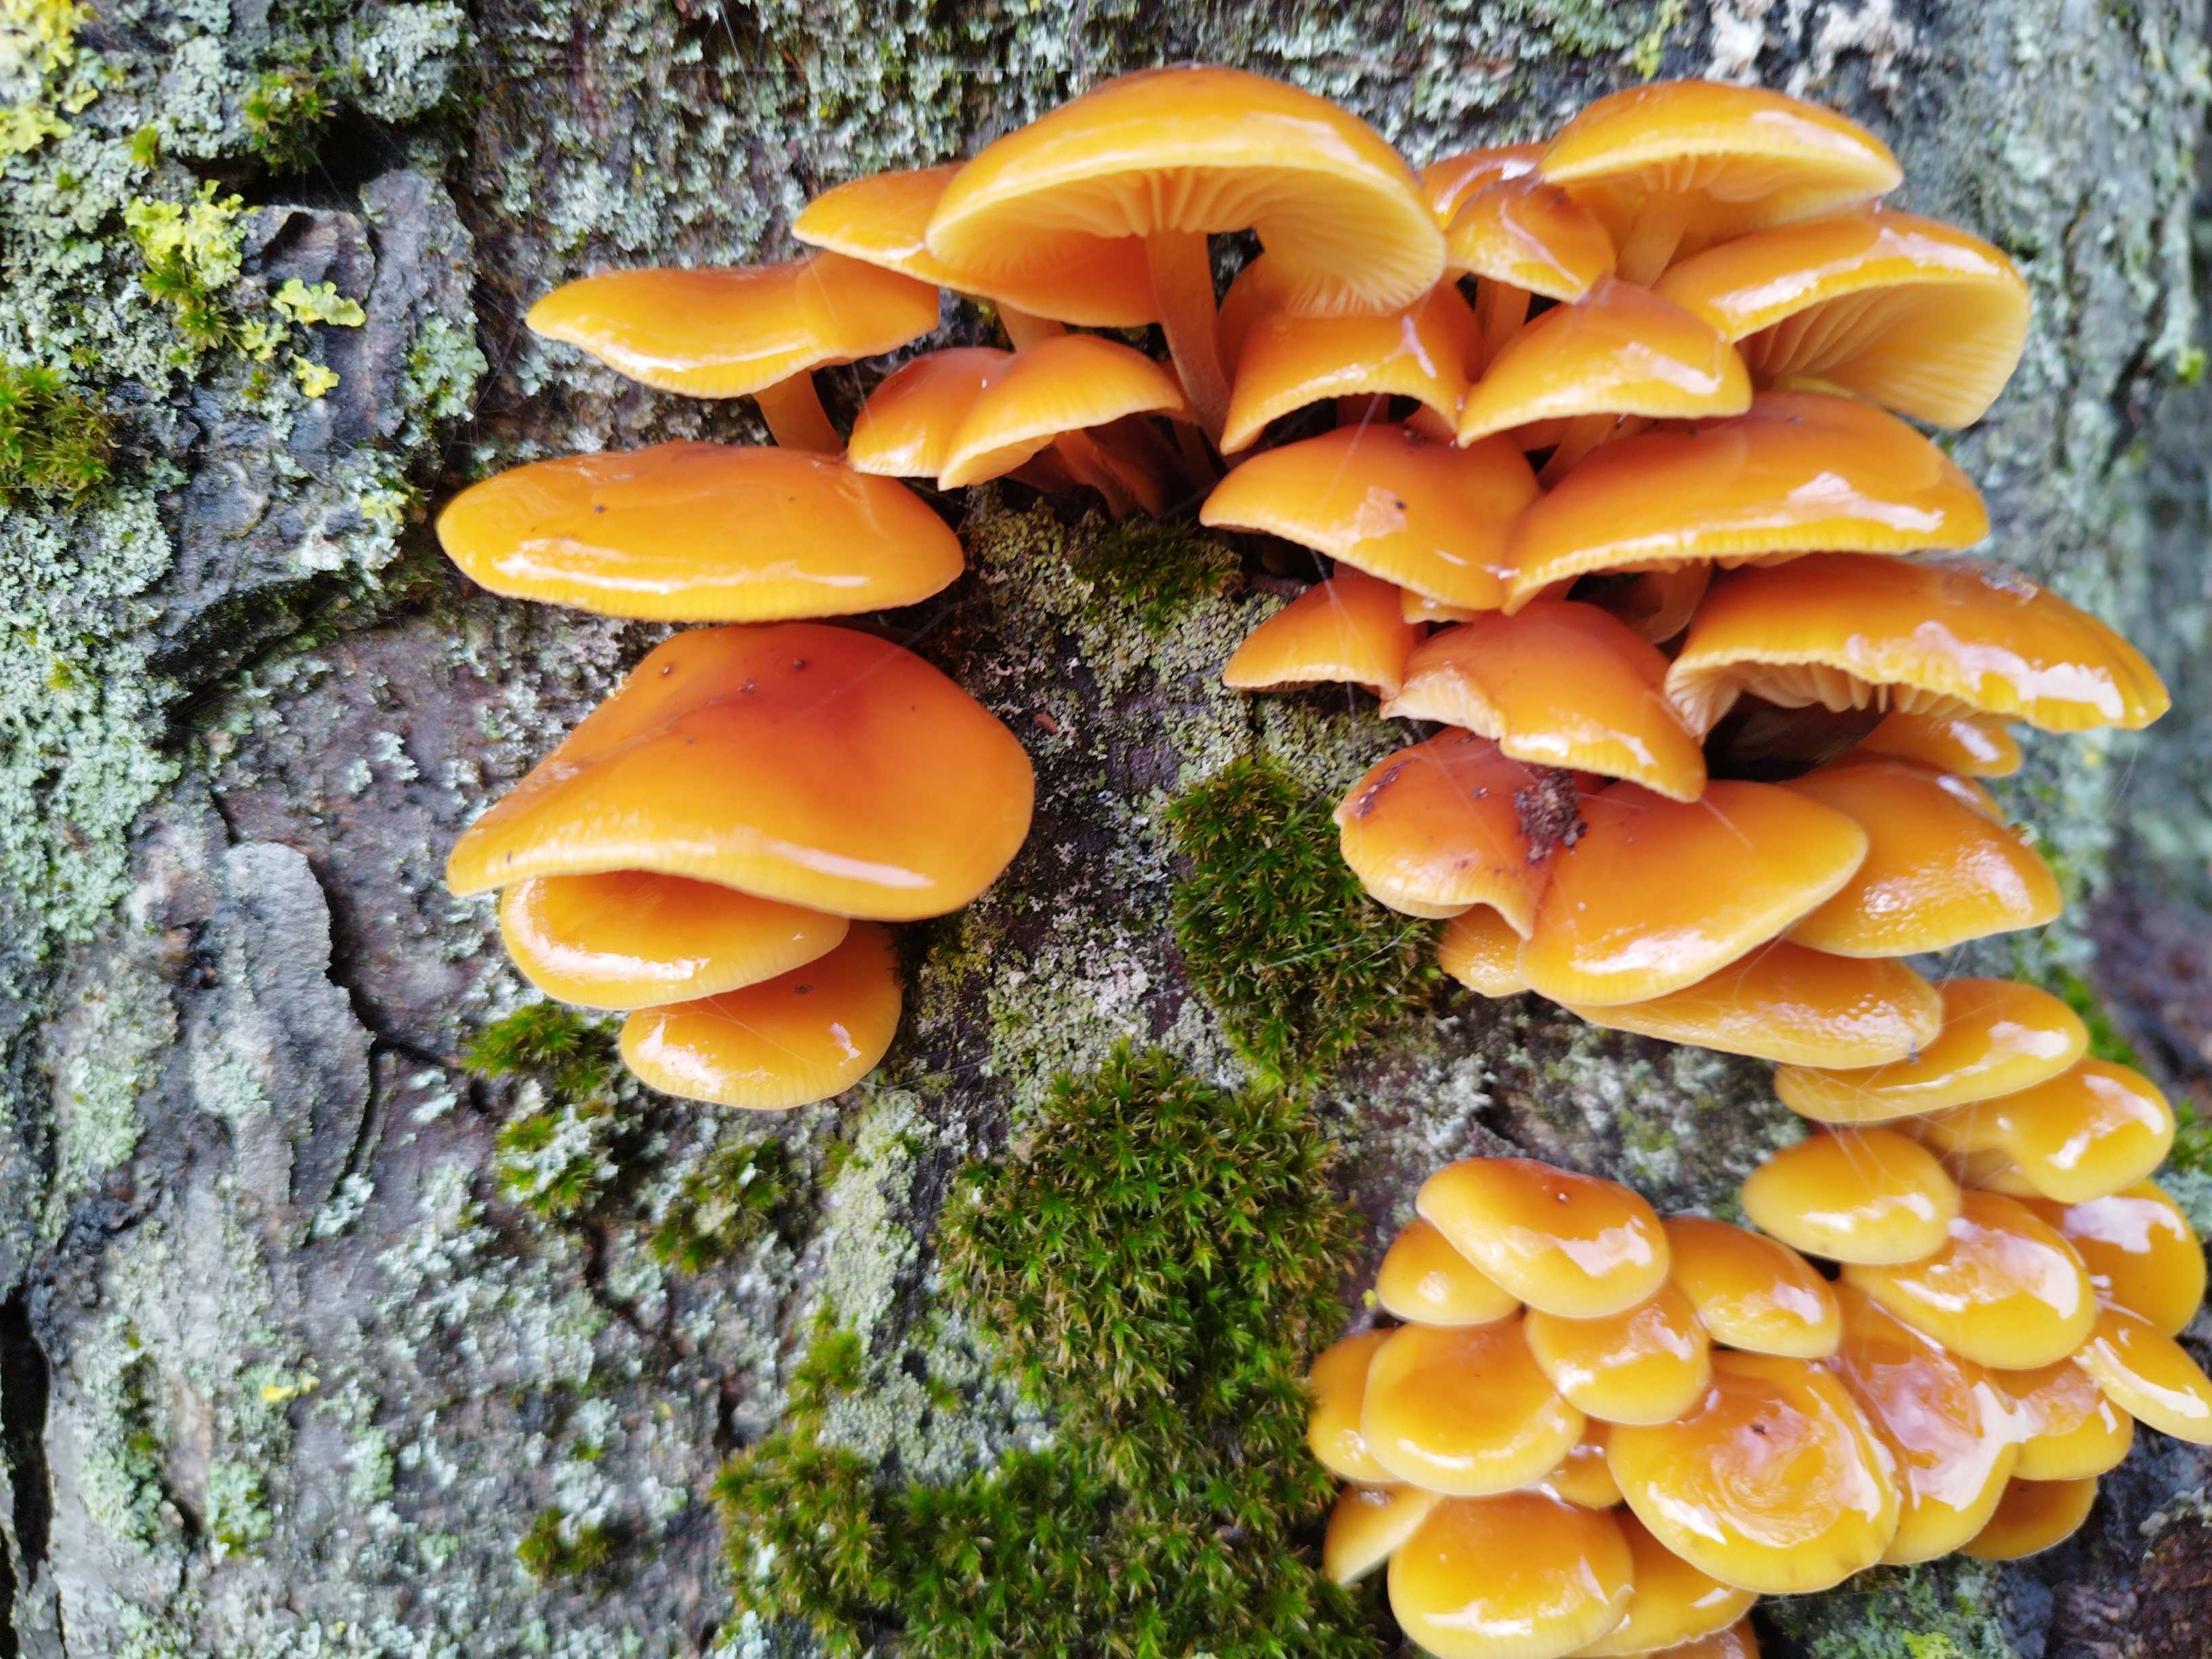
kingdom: Fungi
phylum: Basidiomycota
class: Agaricomycetes
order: Agaricales
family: Physalacriaceae
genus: Flammulina
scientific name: Flammulina velutipes
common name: gul fløjlsfod
